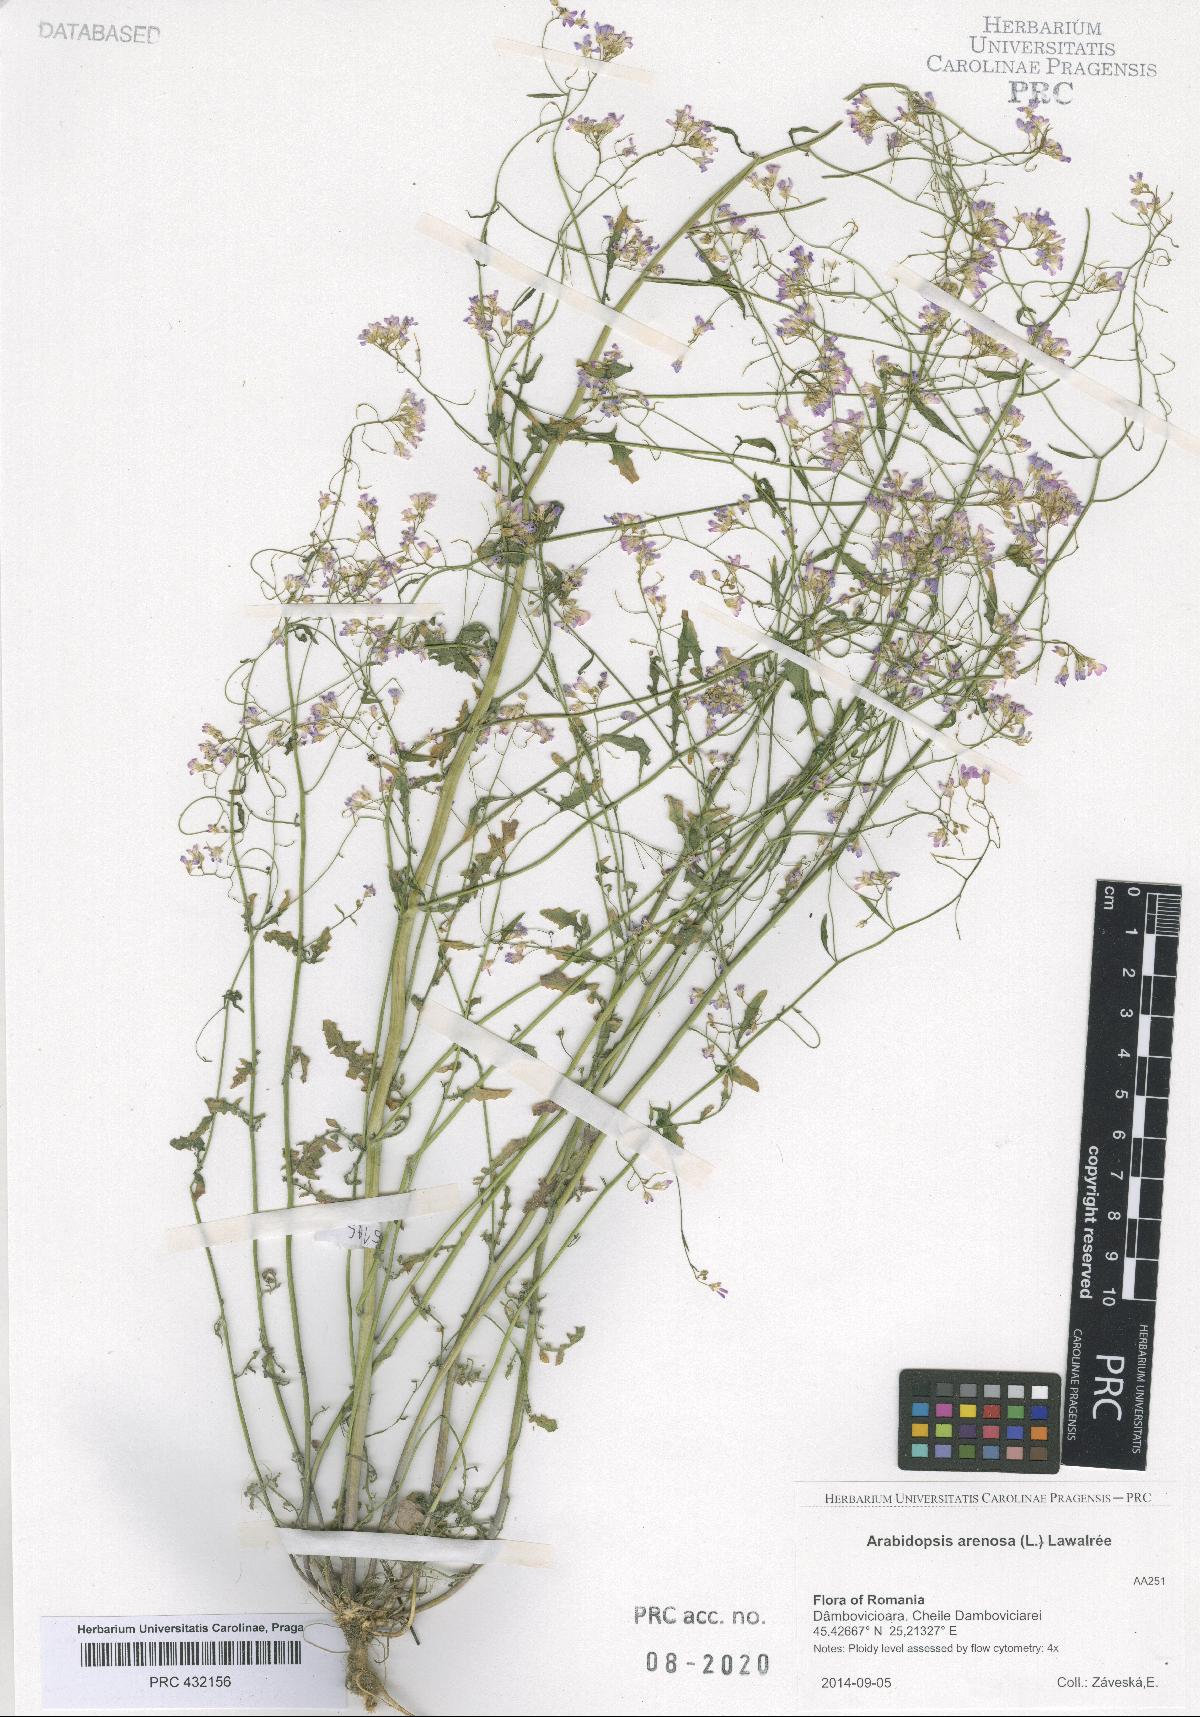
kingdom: Plantae
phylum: Tracheophyta
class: Magnoliopsida
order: Brassicales
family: Brassicaceae
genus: Arabidopsis
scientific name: Arabidopsis arenosa
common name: Sand rock-cress
